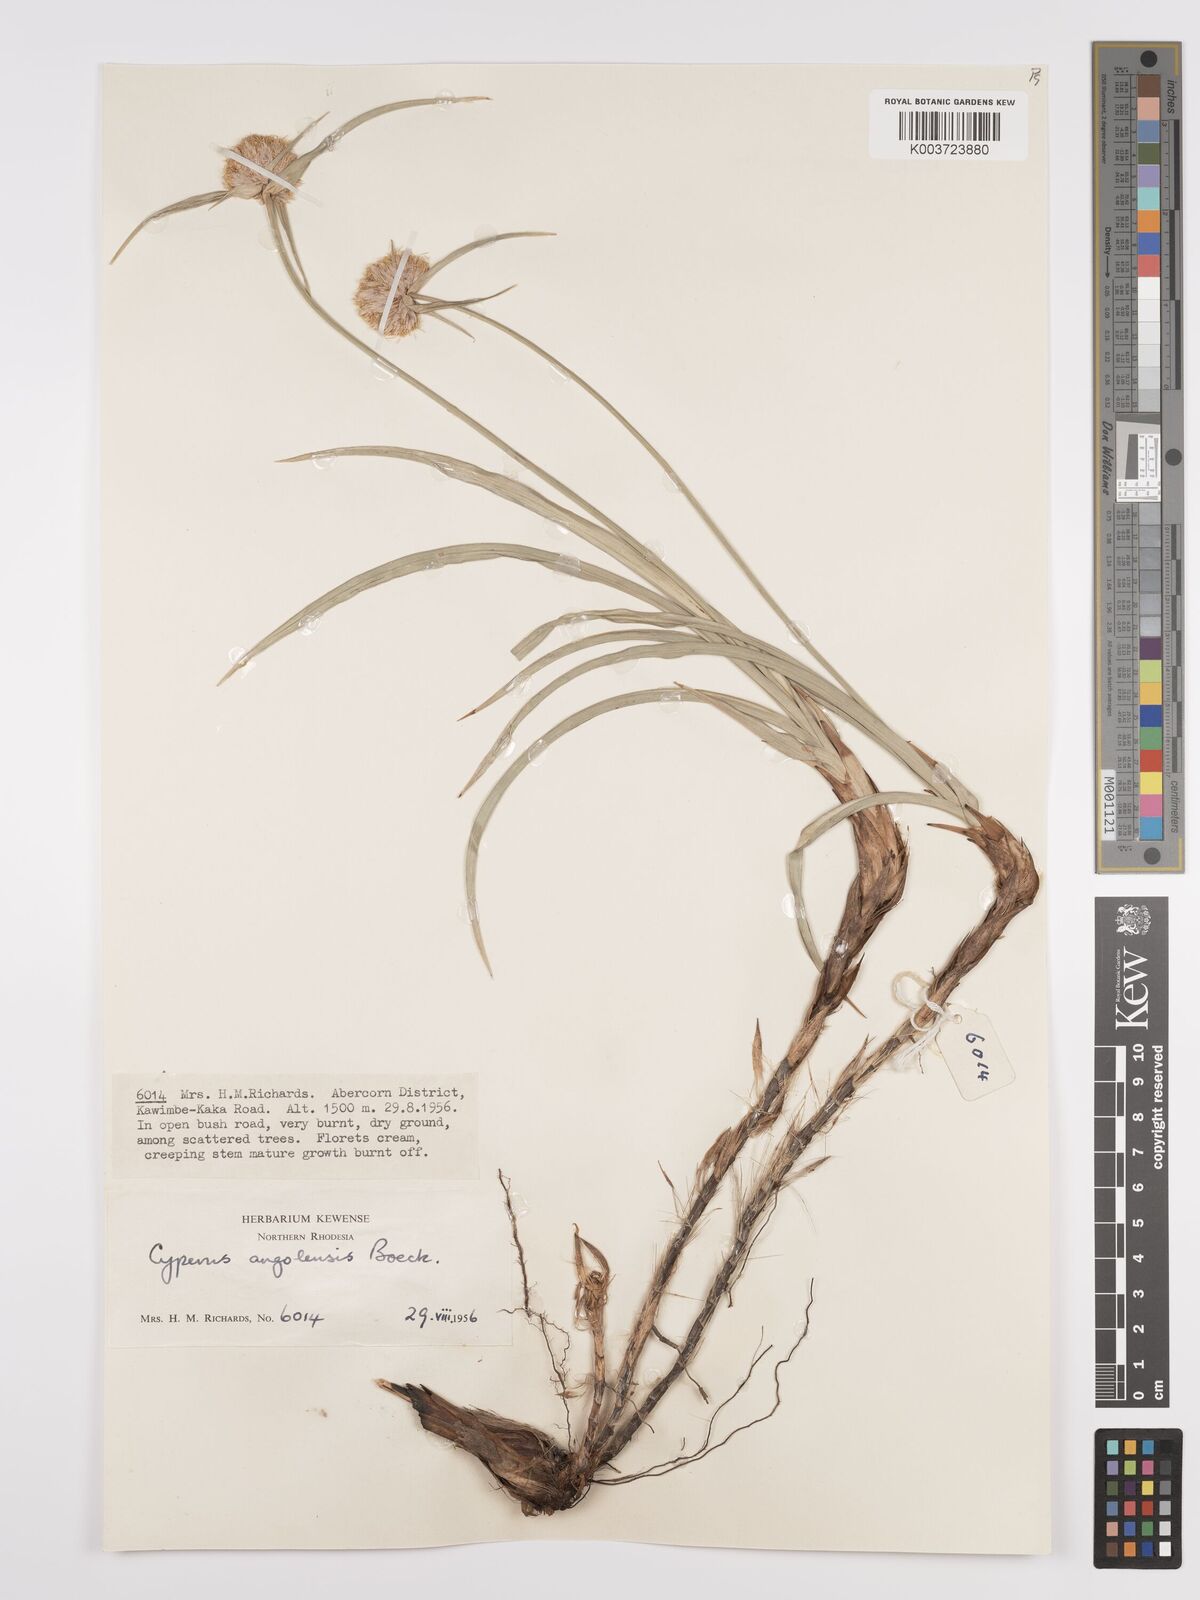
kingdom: Plantae
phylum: Tracheophyta
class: Liliopsida
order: Poales
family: Cyperaceae
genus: Cyperus
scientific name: Cyperus angolensis
